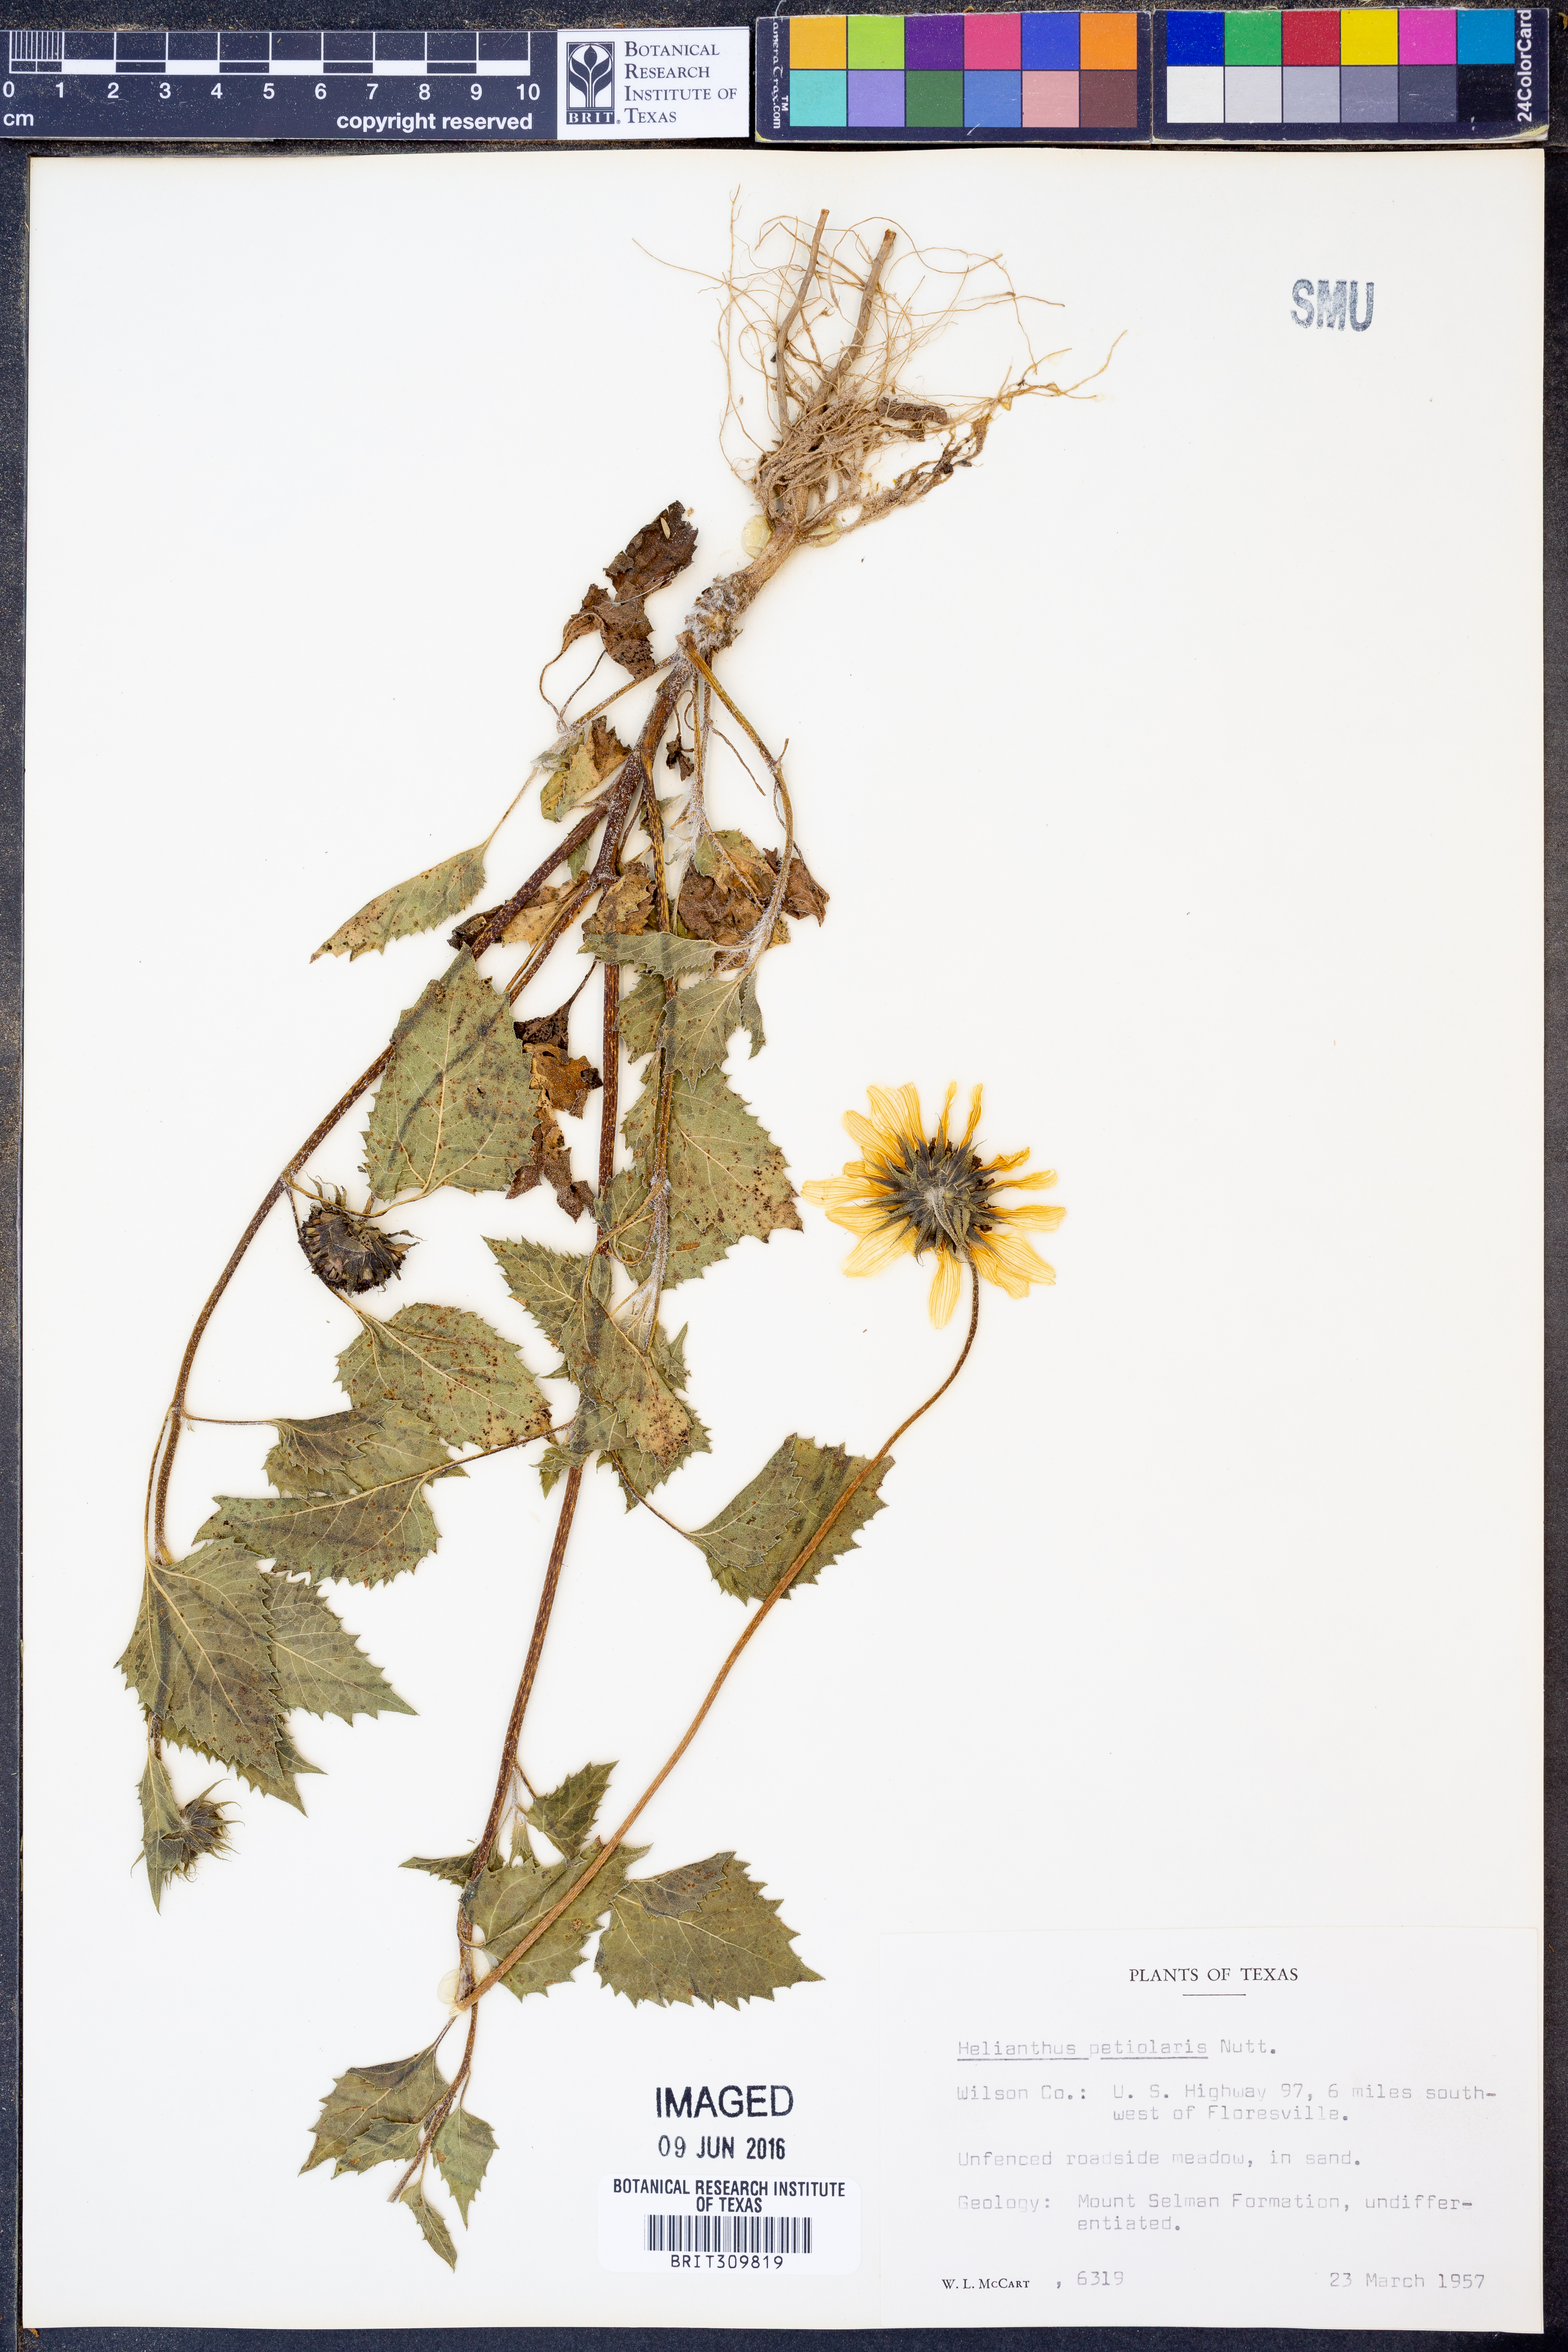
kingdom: Plantae
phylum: Tracheophyta
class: Magnoliopsida
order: Asterales
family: Asteraceae
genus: Helianthus
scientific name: Helianthus petiolaris
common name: Lesser sunflower
